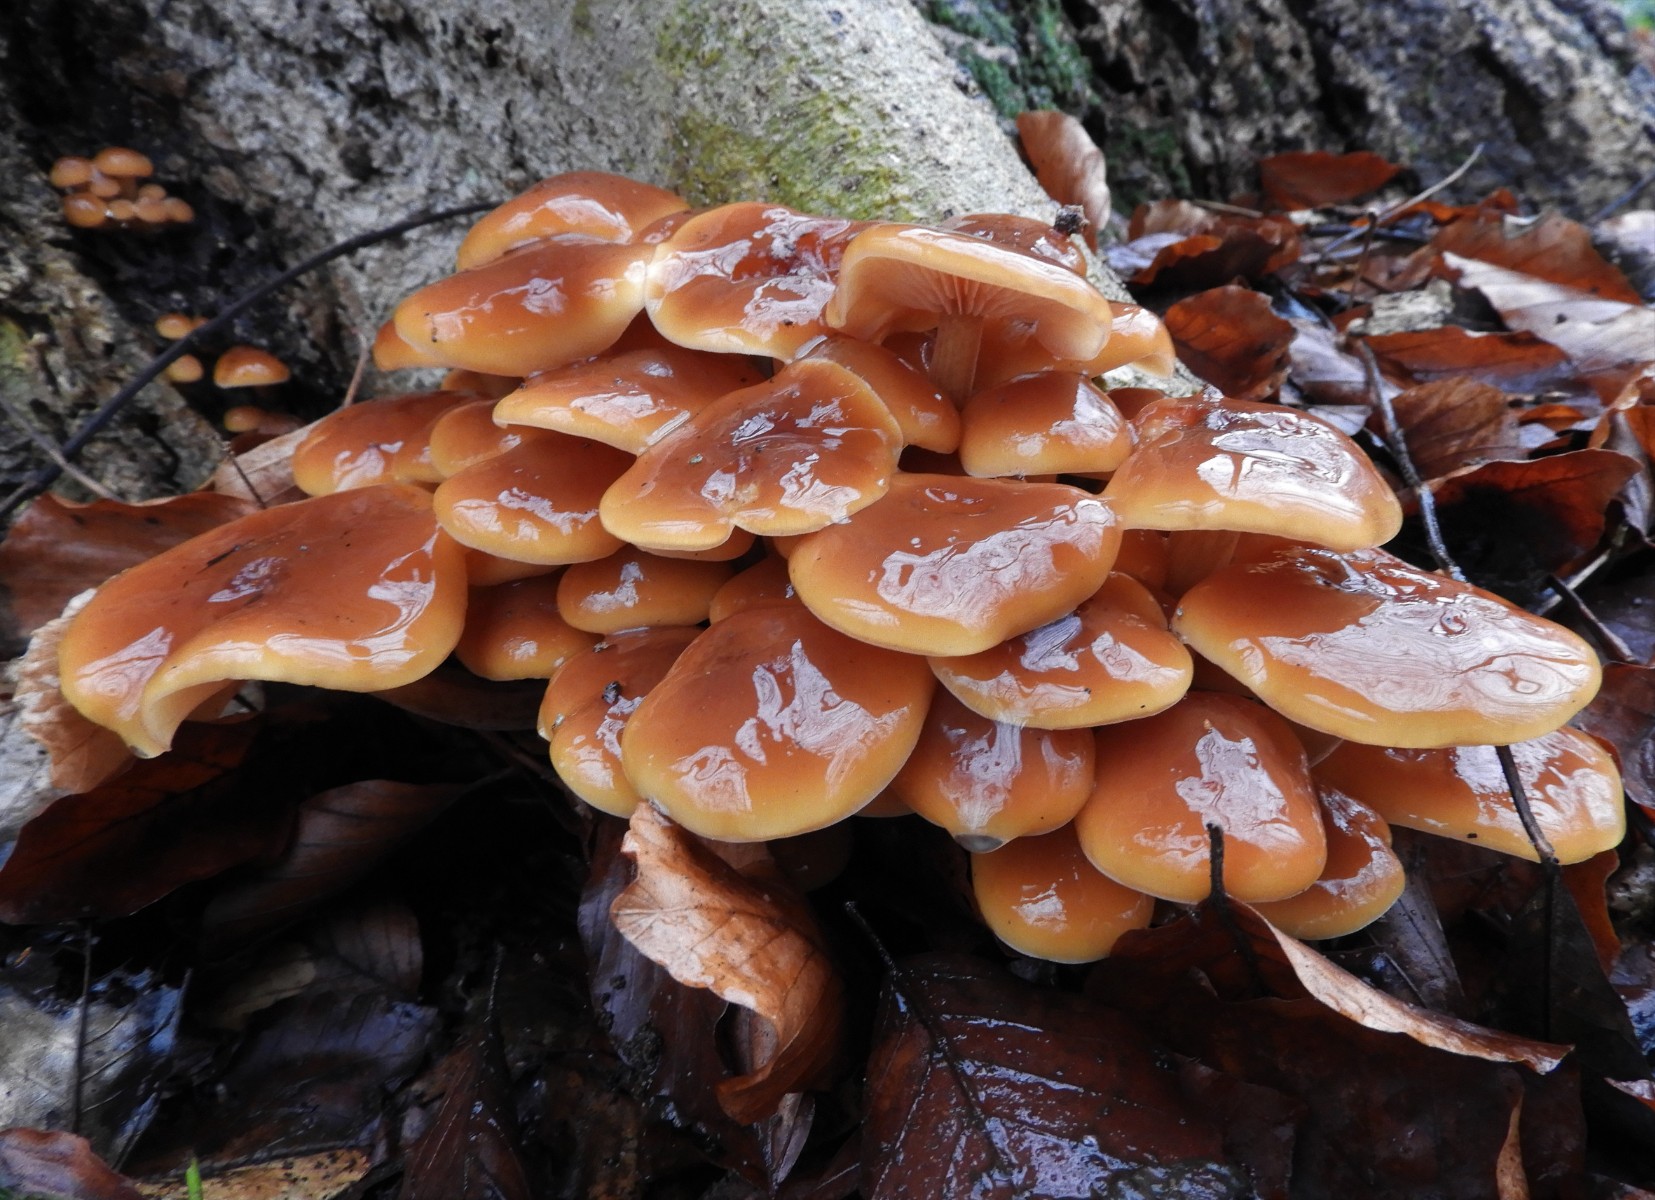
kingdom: Fungi
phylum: Basidiomycota
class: Agaricomycetes
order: Agaricales
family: Physalacriaceae
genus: Flammulina
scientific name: Flammulina velutipes
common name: gul fløjlsfod
